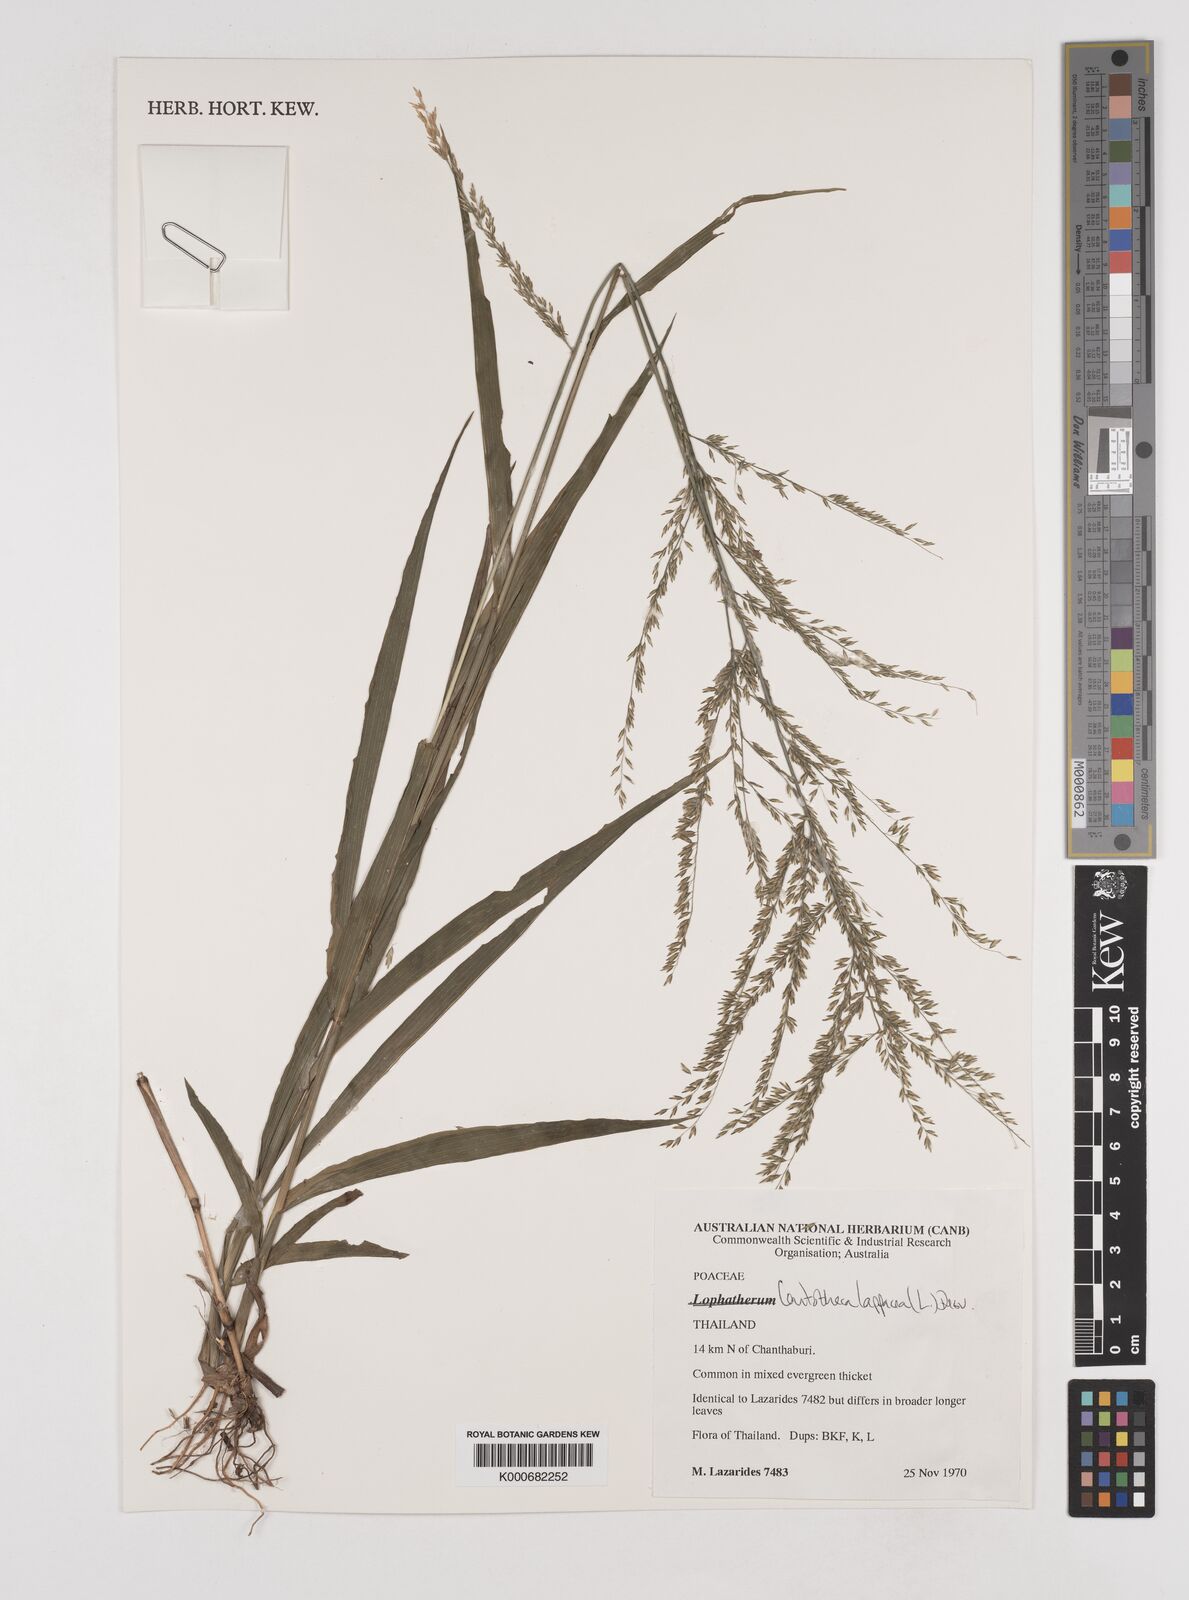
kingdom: Plantae
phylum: Tracheophyta
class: Liliopsida
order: Poales
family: Poaceae
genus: Centotheca
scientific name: Centotheca lappacea
